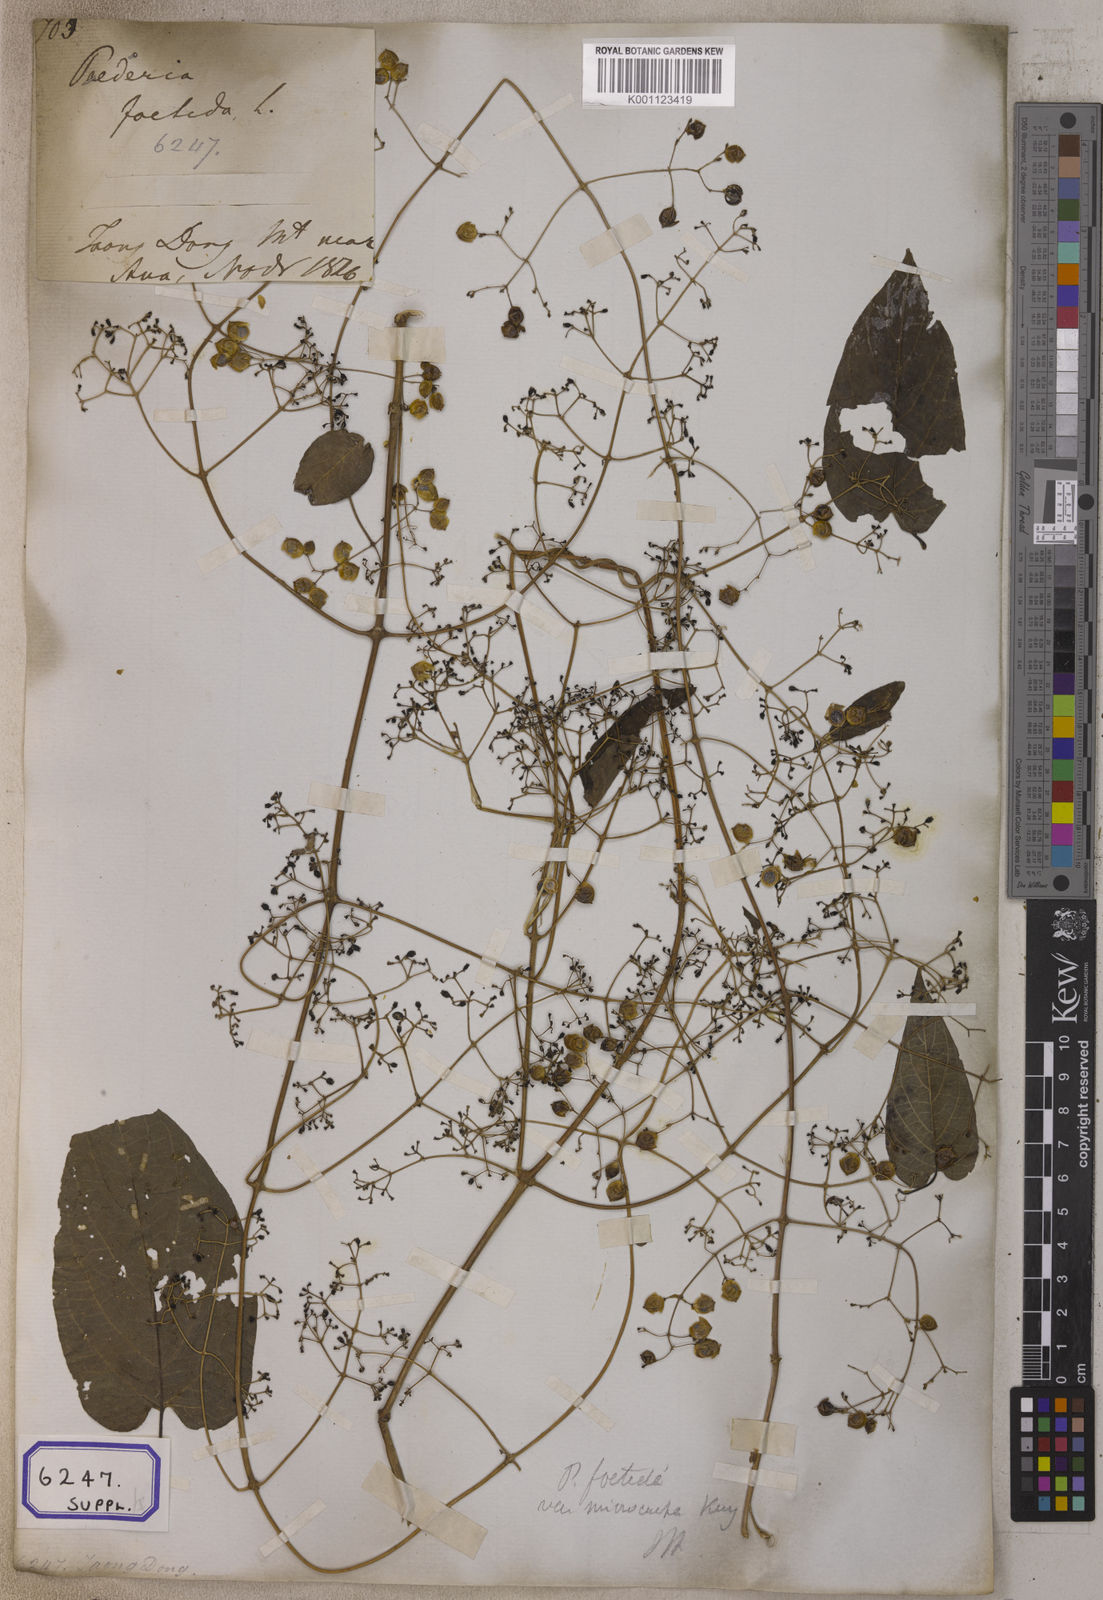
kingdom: Plantae
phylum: Tracheophyta
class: Magnoliopsida
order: Gentianales
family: Rubiaceae
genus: Paederia
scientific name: Paederia
